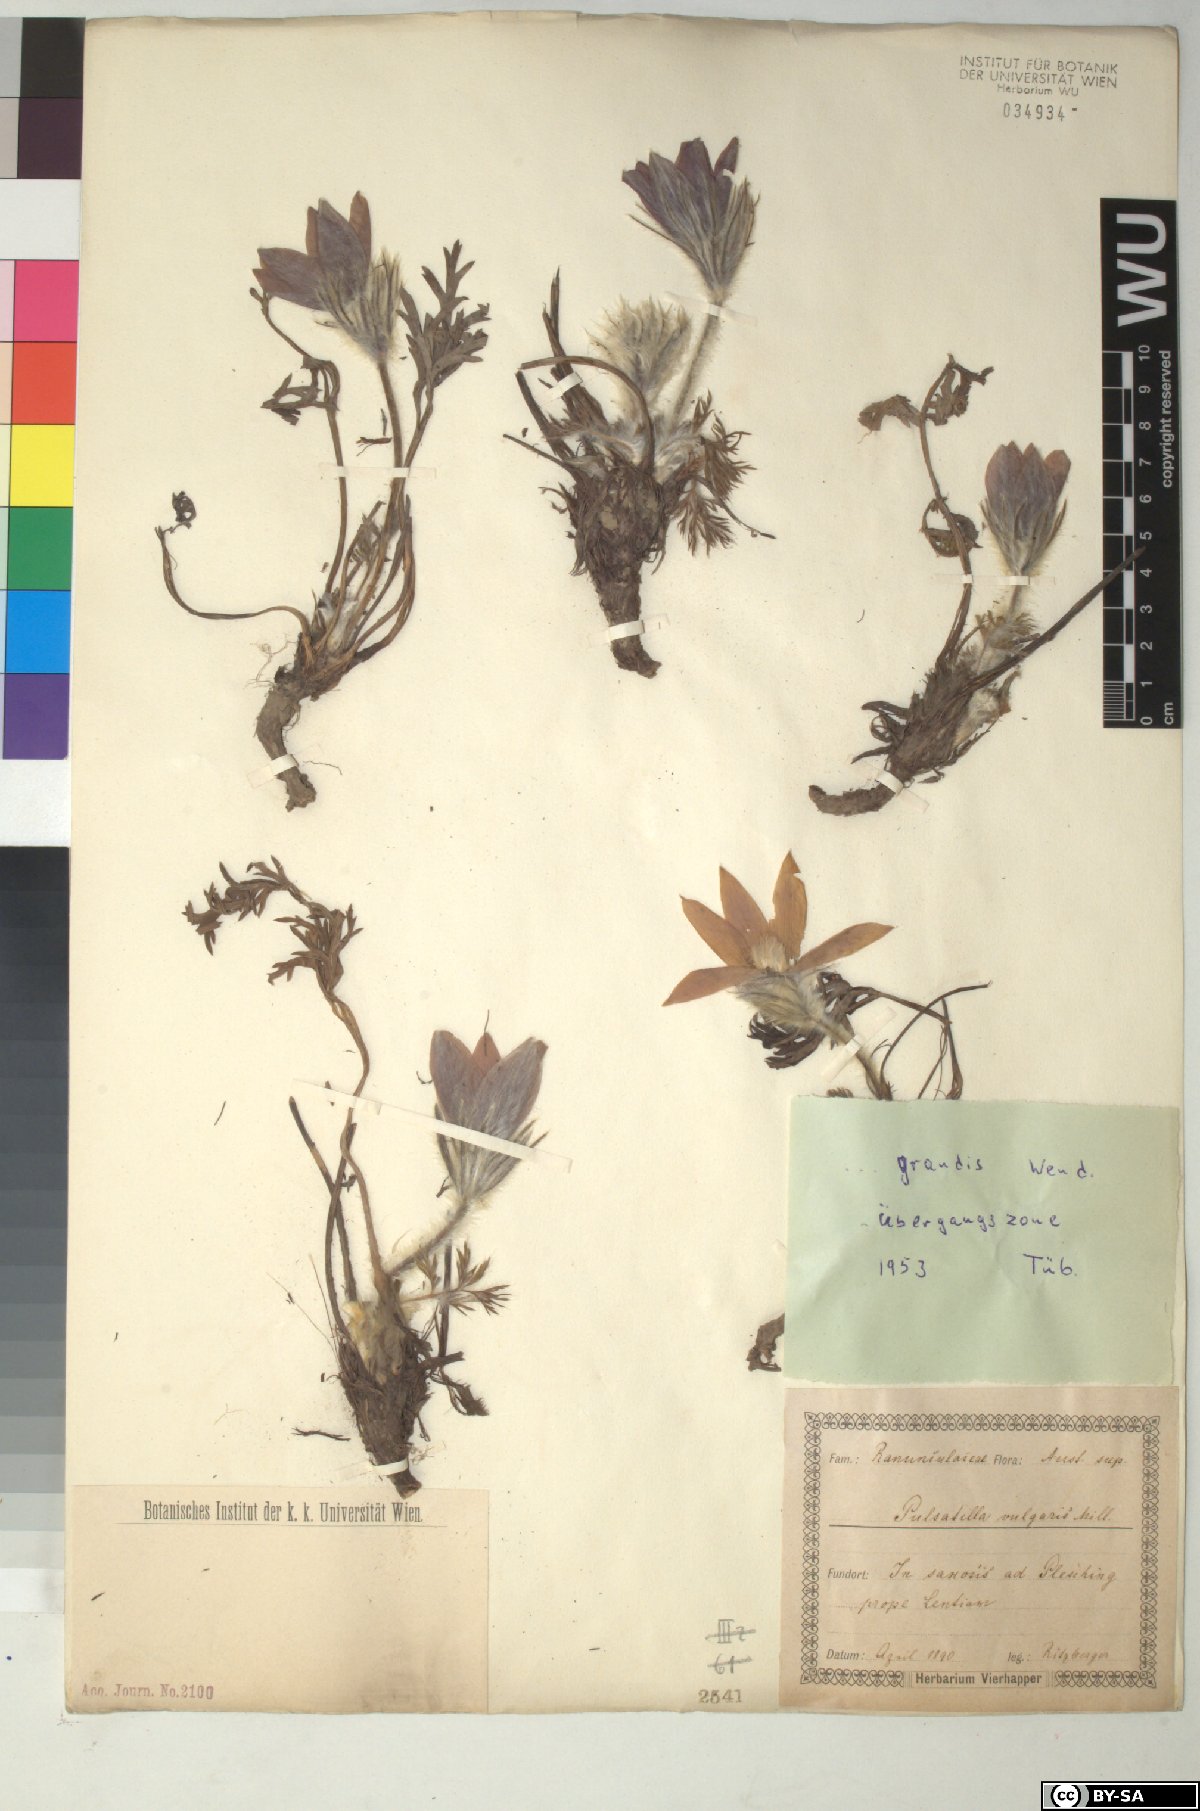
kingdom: Plantae
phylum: Tracheophyta
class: Magnoliopsida
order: Ranunculales
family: Ranunculaceae
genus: Pulsatilla
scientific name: Pulsatilla grandis
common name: Greater pasque flower
